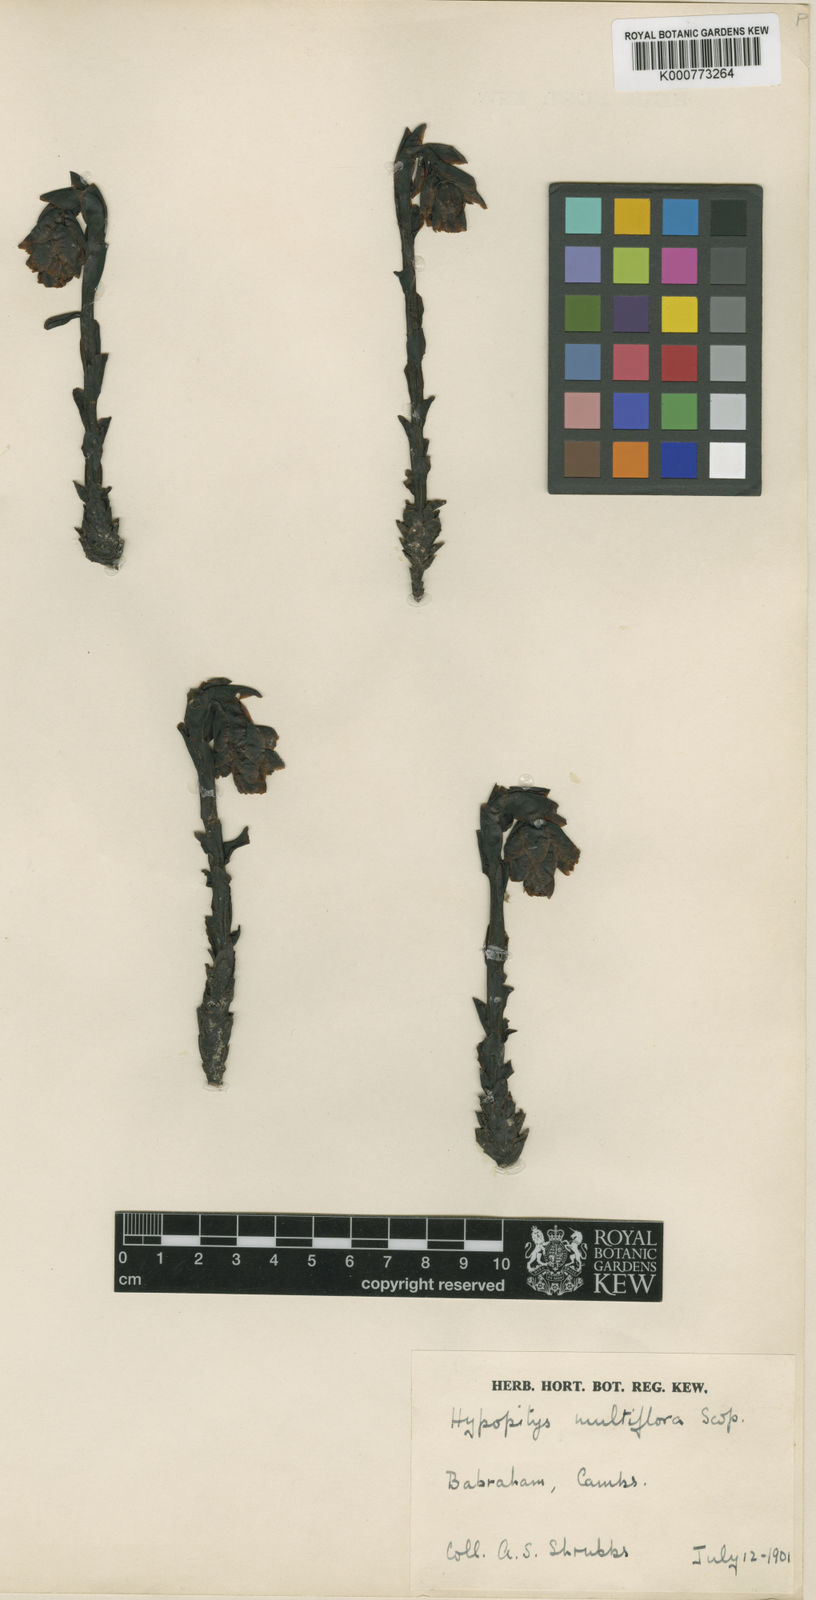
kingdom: Plantae
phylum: Tracheophyta
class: Magnoliopsida
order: Ericales
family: Ericaceae
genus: Monotropa
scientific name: Monotropa
